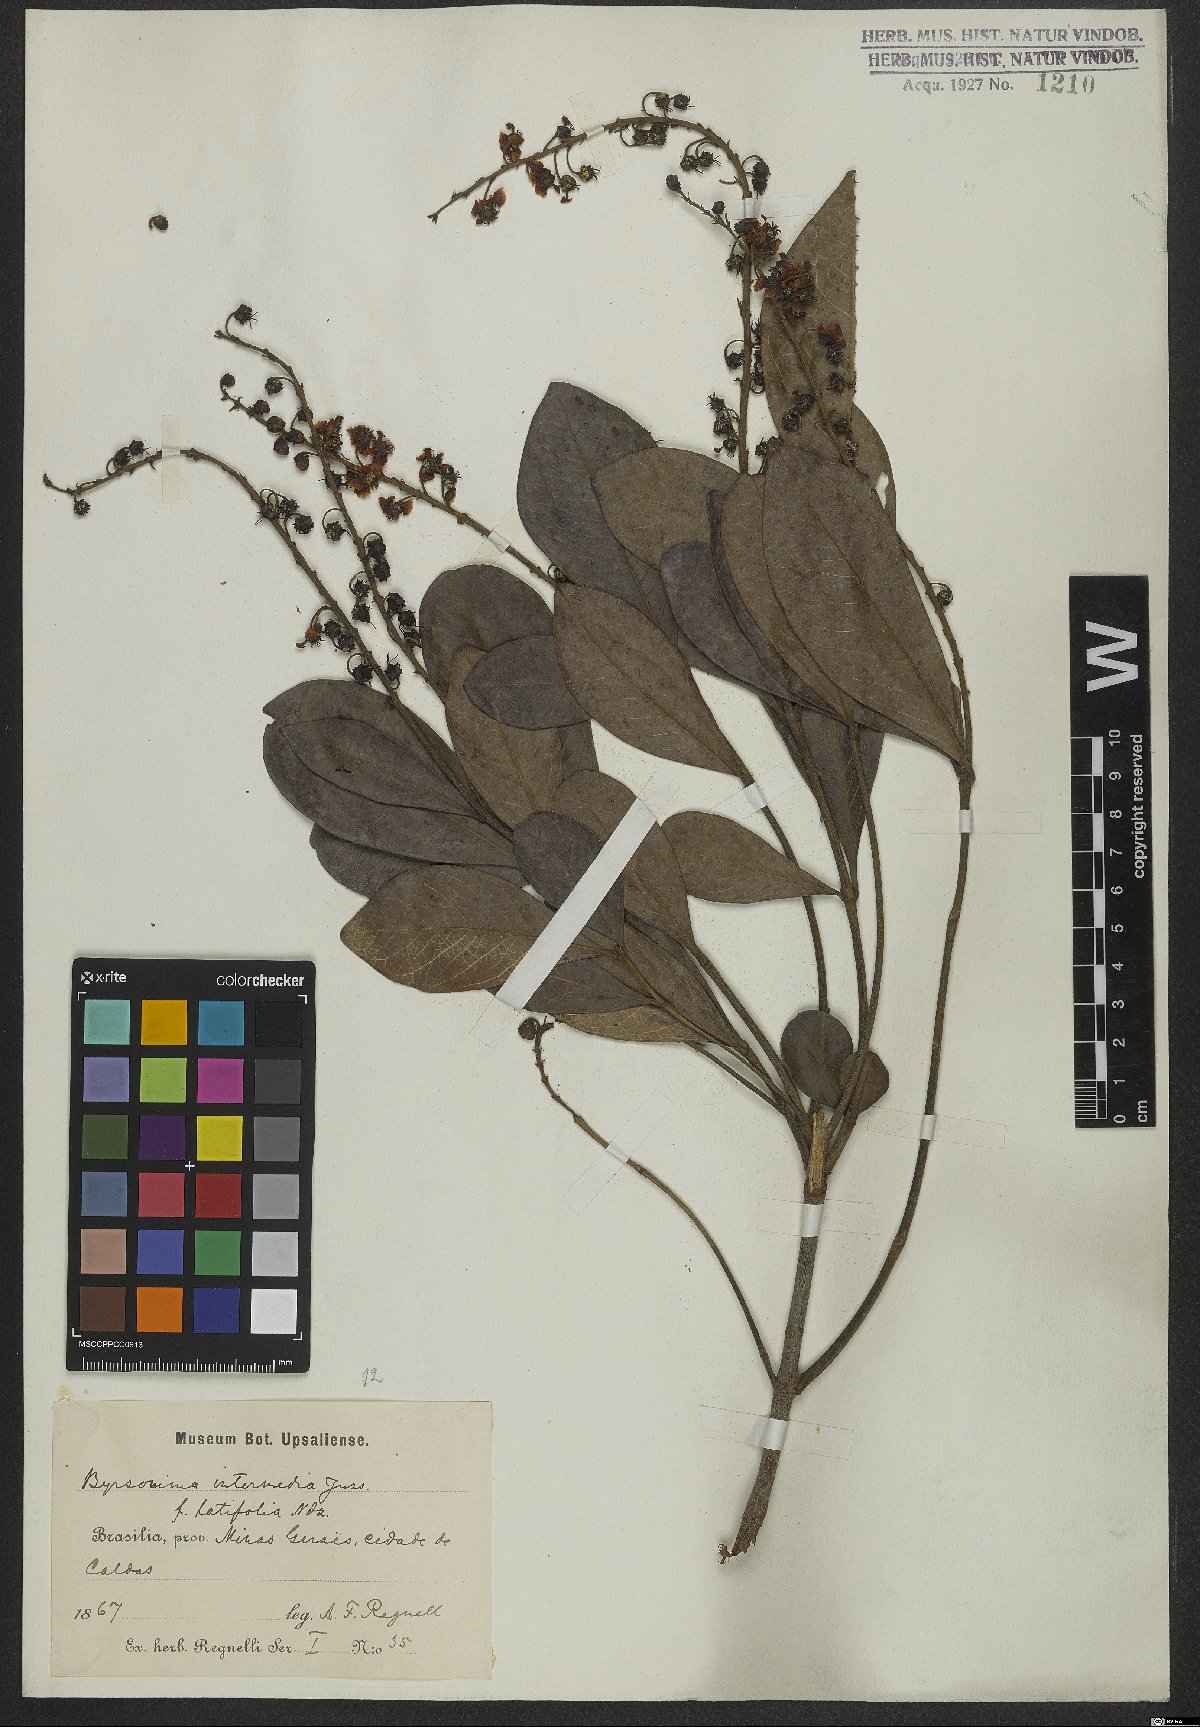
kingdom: Plantae
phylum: Tracheophyta
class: Magnoliopsida
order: Malpighiales
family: Malpighiaceae
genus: Byrsonima
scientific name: Byrsonima intermedia
